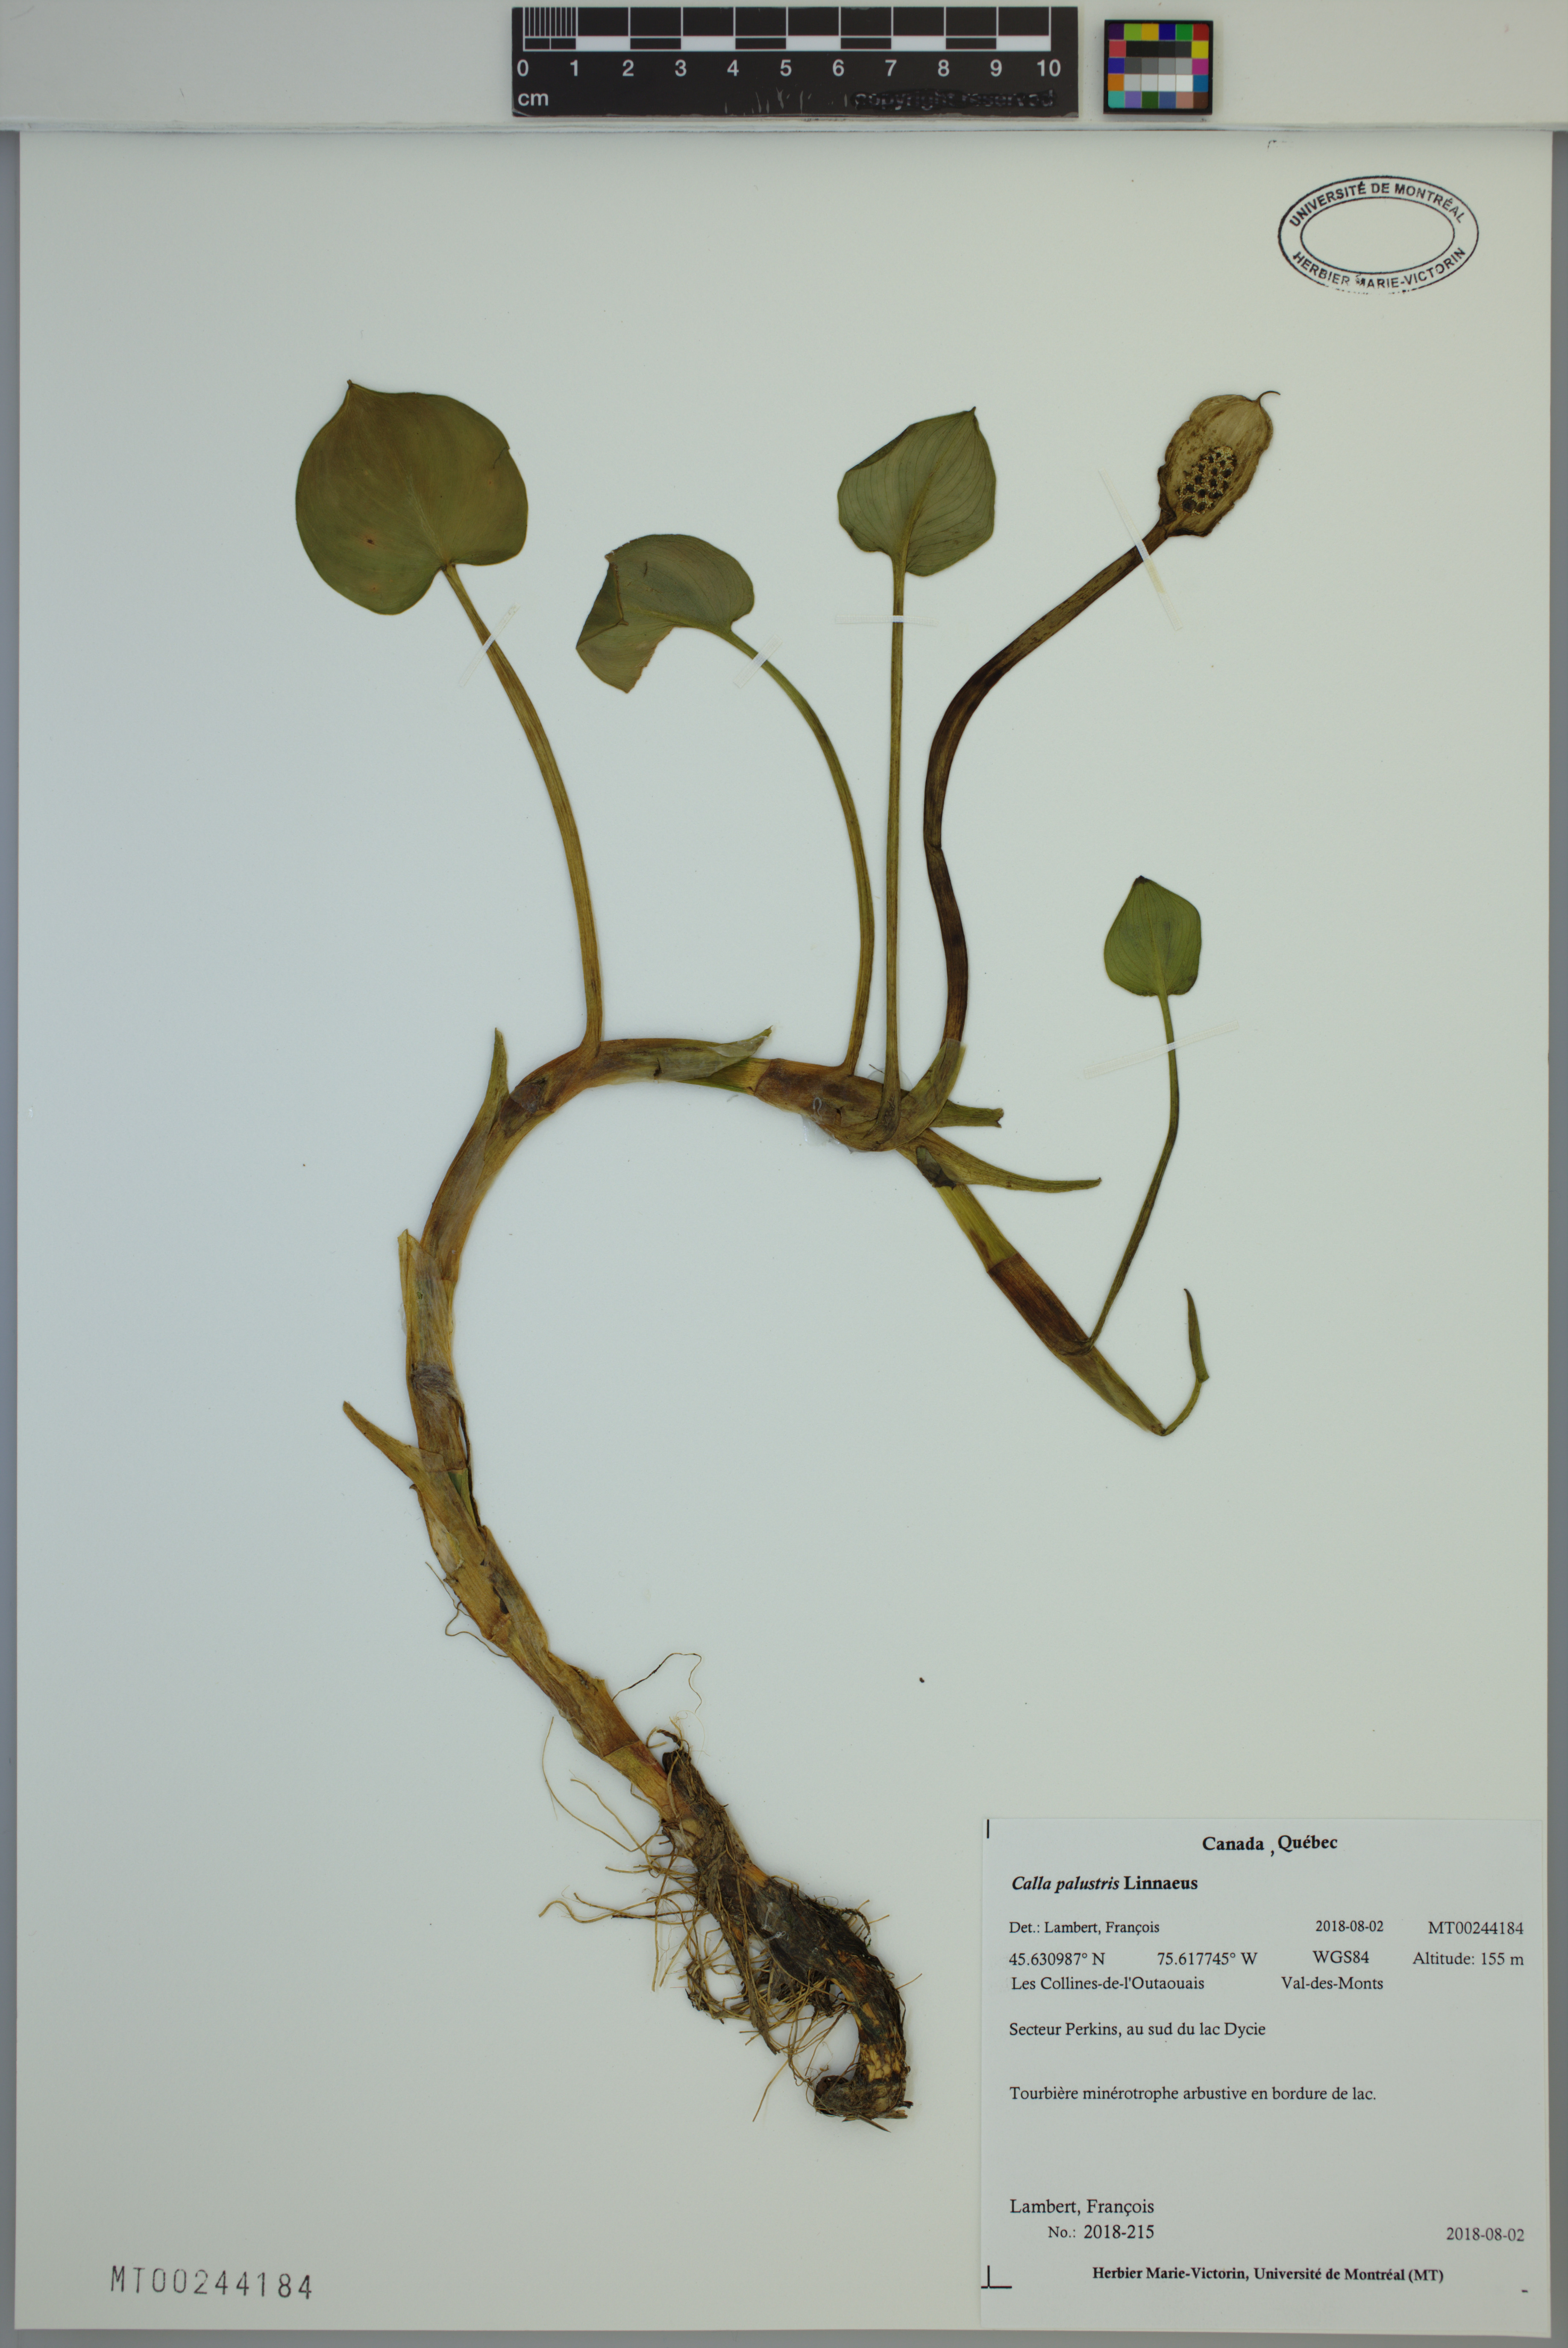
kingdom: Plantae
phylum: Tracheophyta
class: Liliopsida
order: Alismatales
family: Araceae
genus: Calla
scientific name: Calla palustris
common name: Bog arum
